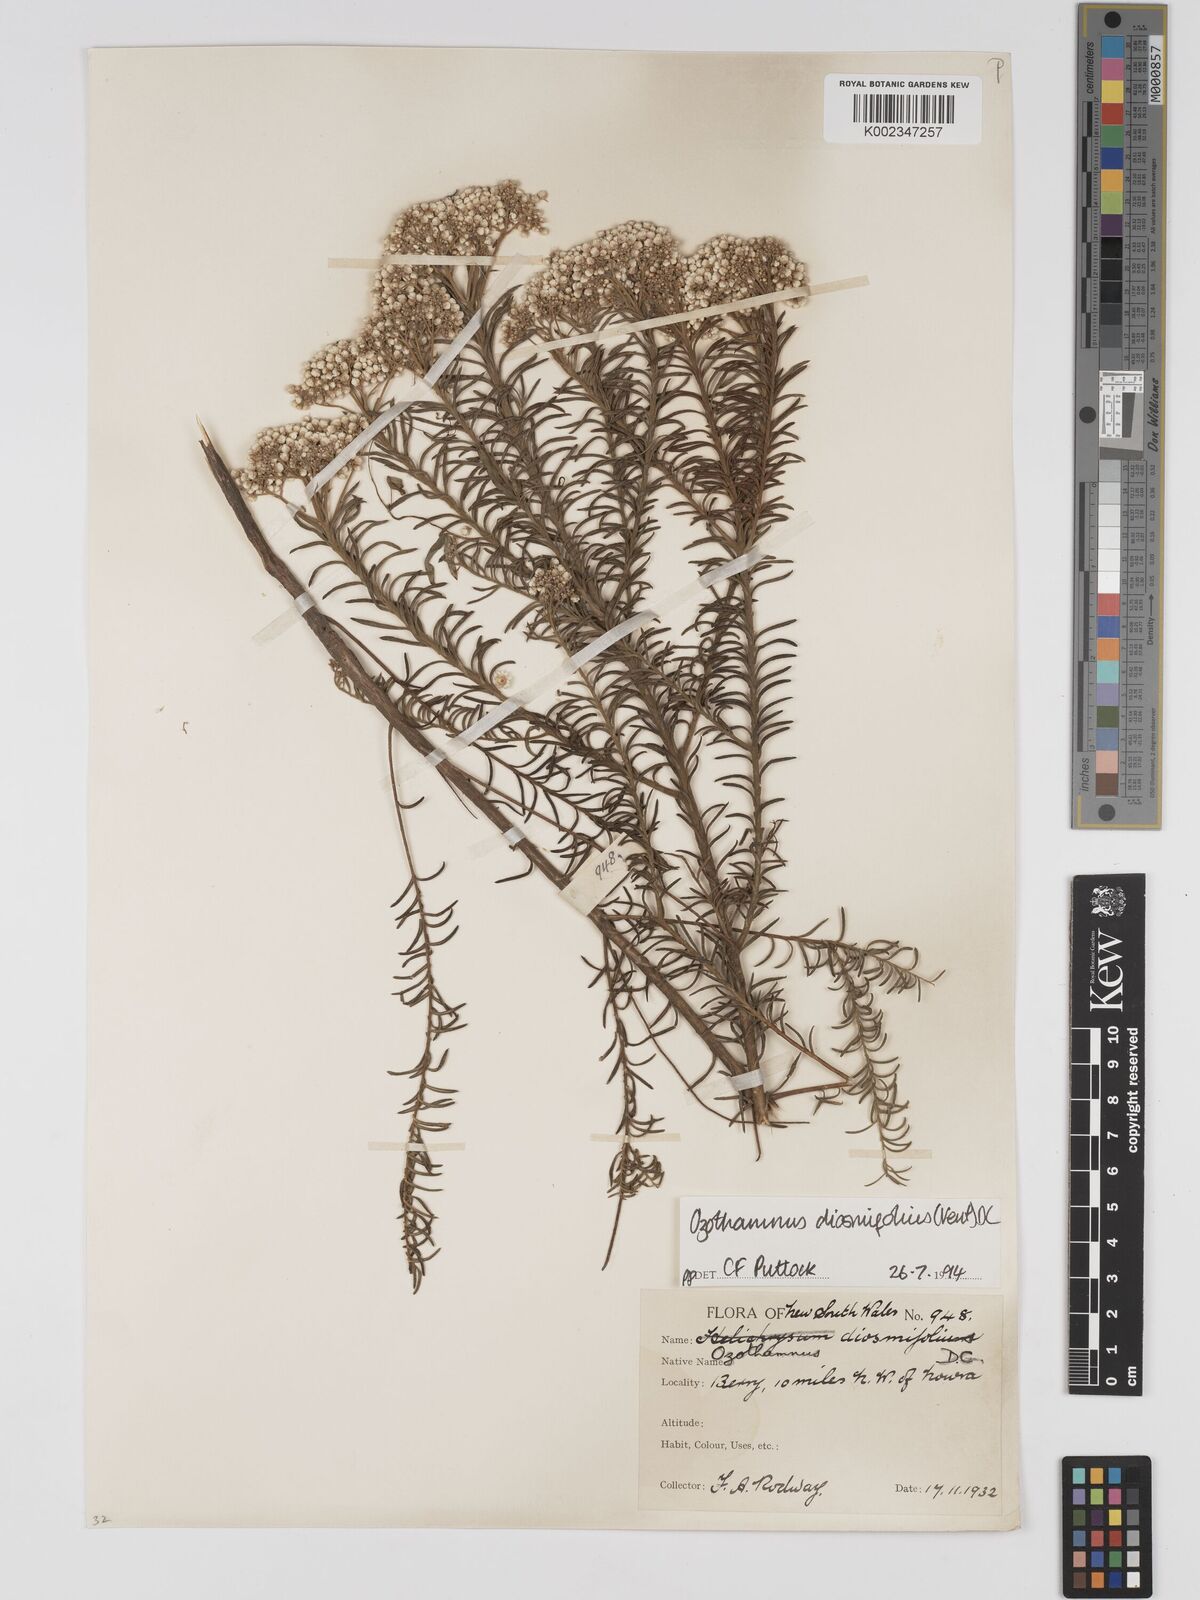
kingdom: Plantae
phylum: Tracheophyta
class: Magnoliopsida
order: Asterales
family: Asteraceae
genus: Ozothamnus
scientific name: Ozothamnus diosmifolius
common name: White-dogwood
